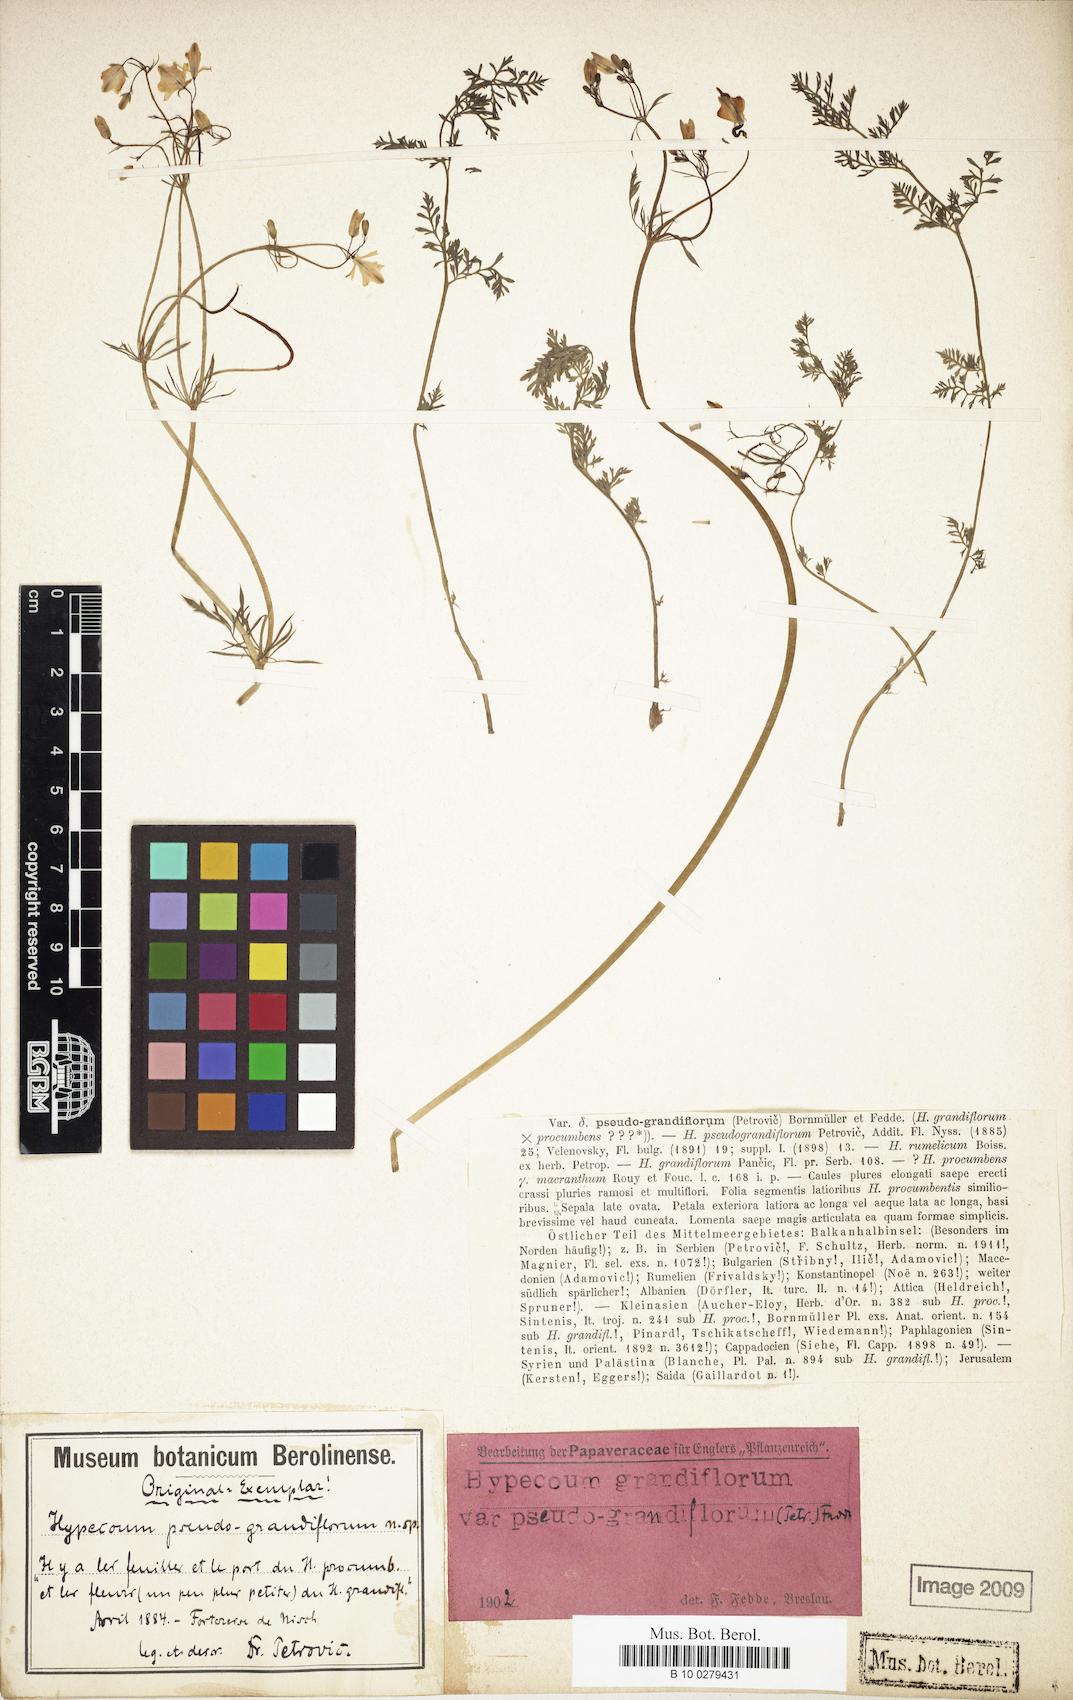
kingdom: Plantae
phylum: Tracheophyta
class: Magnoliopsida
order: Ranunculales
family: Papaveraceae
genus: Hypecoum
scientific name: Hypecoum pseudograndiflorum
